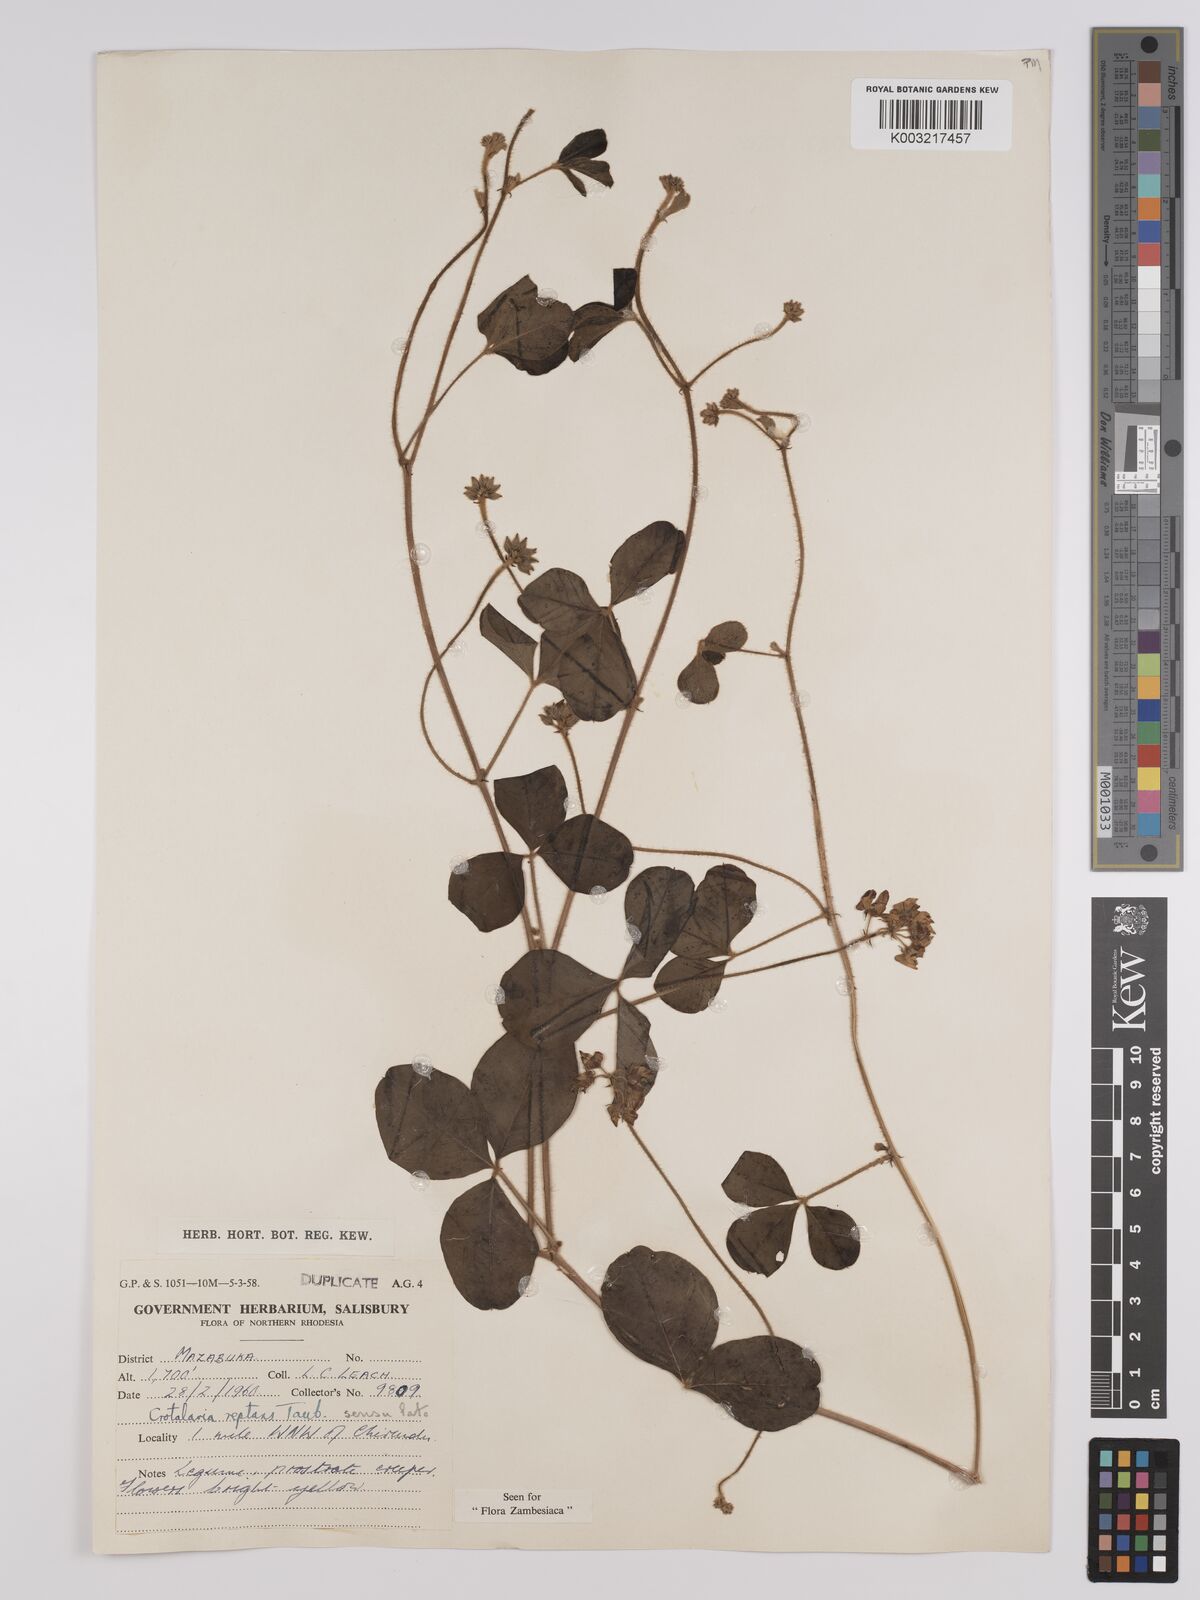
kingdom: Plantae
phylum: Tracheophyta
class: Magnoliopsida
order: Fabales
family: Fabaceae
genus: Crotalaria
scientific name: Crotalaria reptans
